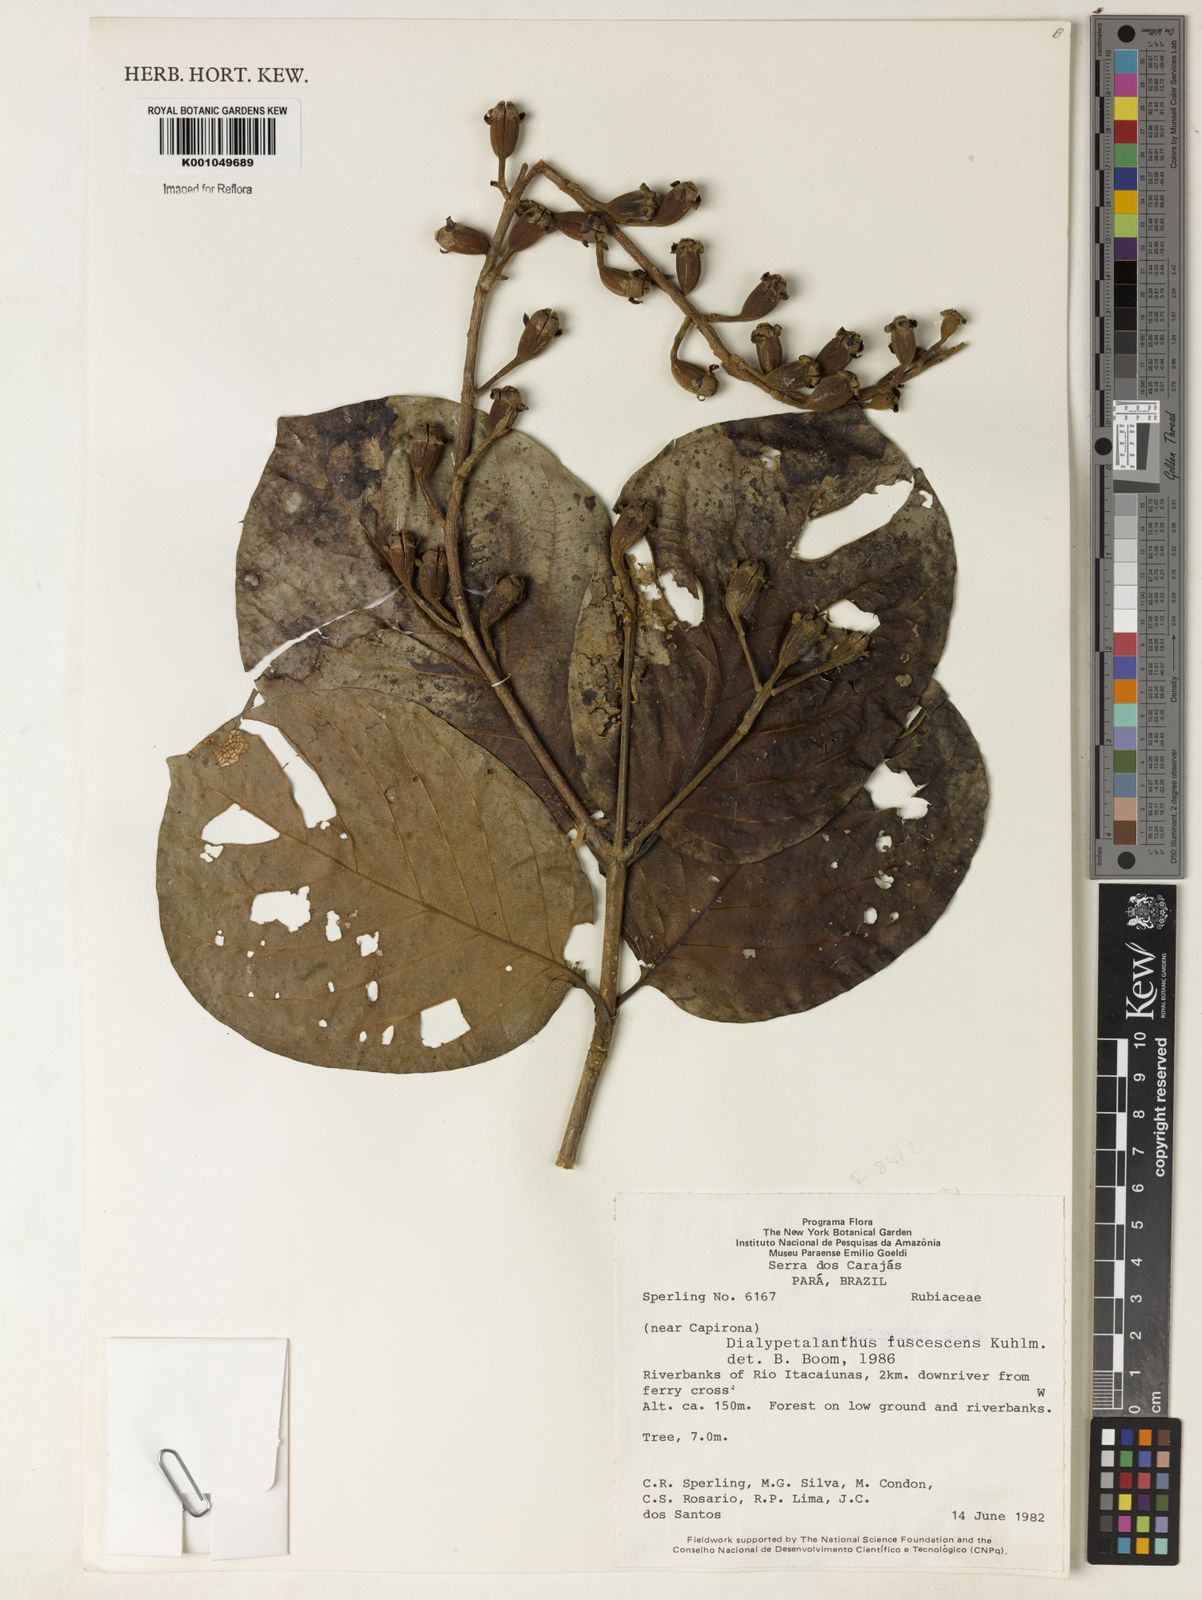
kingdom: Plantae
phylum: Tracheophyta
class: Magnoliopsida
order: Gentianales
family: Rubiaceae
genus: Dialypetalanthus
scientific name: Dialypetalanthus fuscescens
